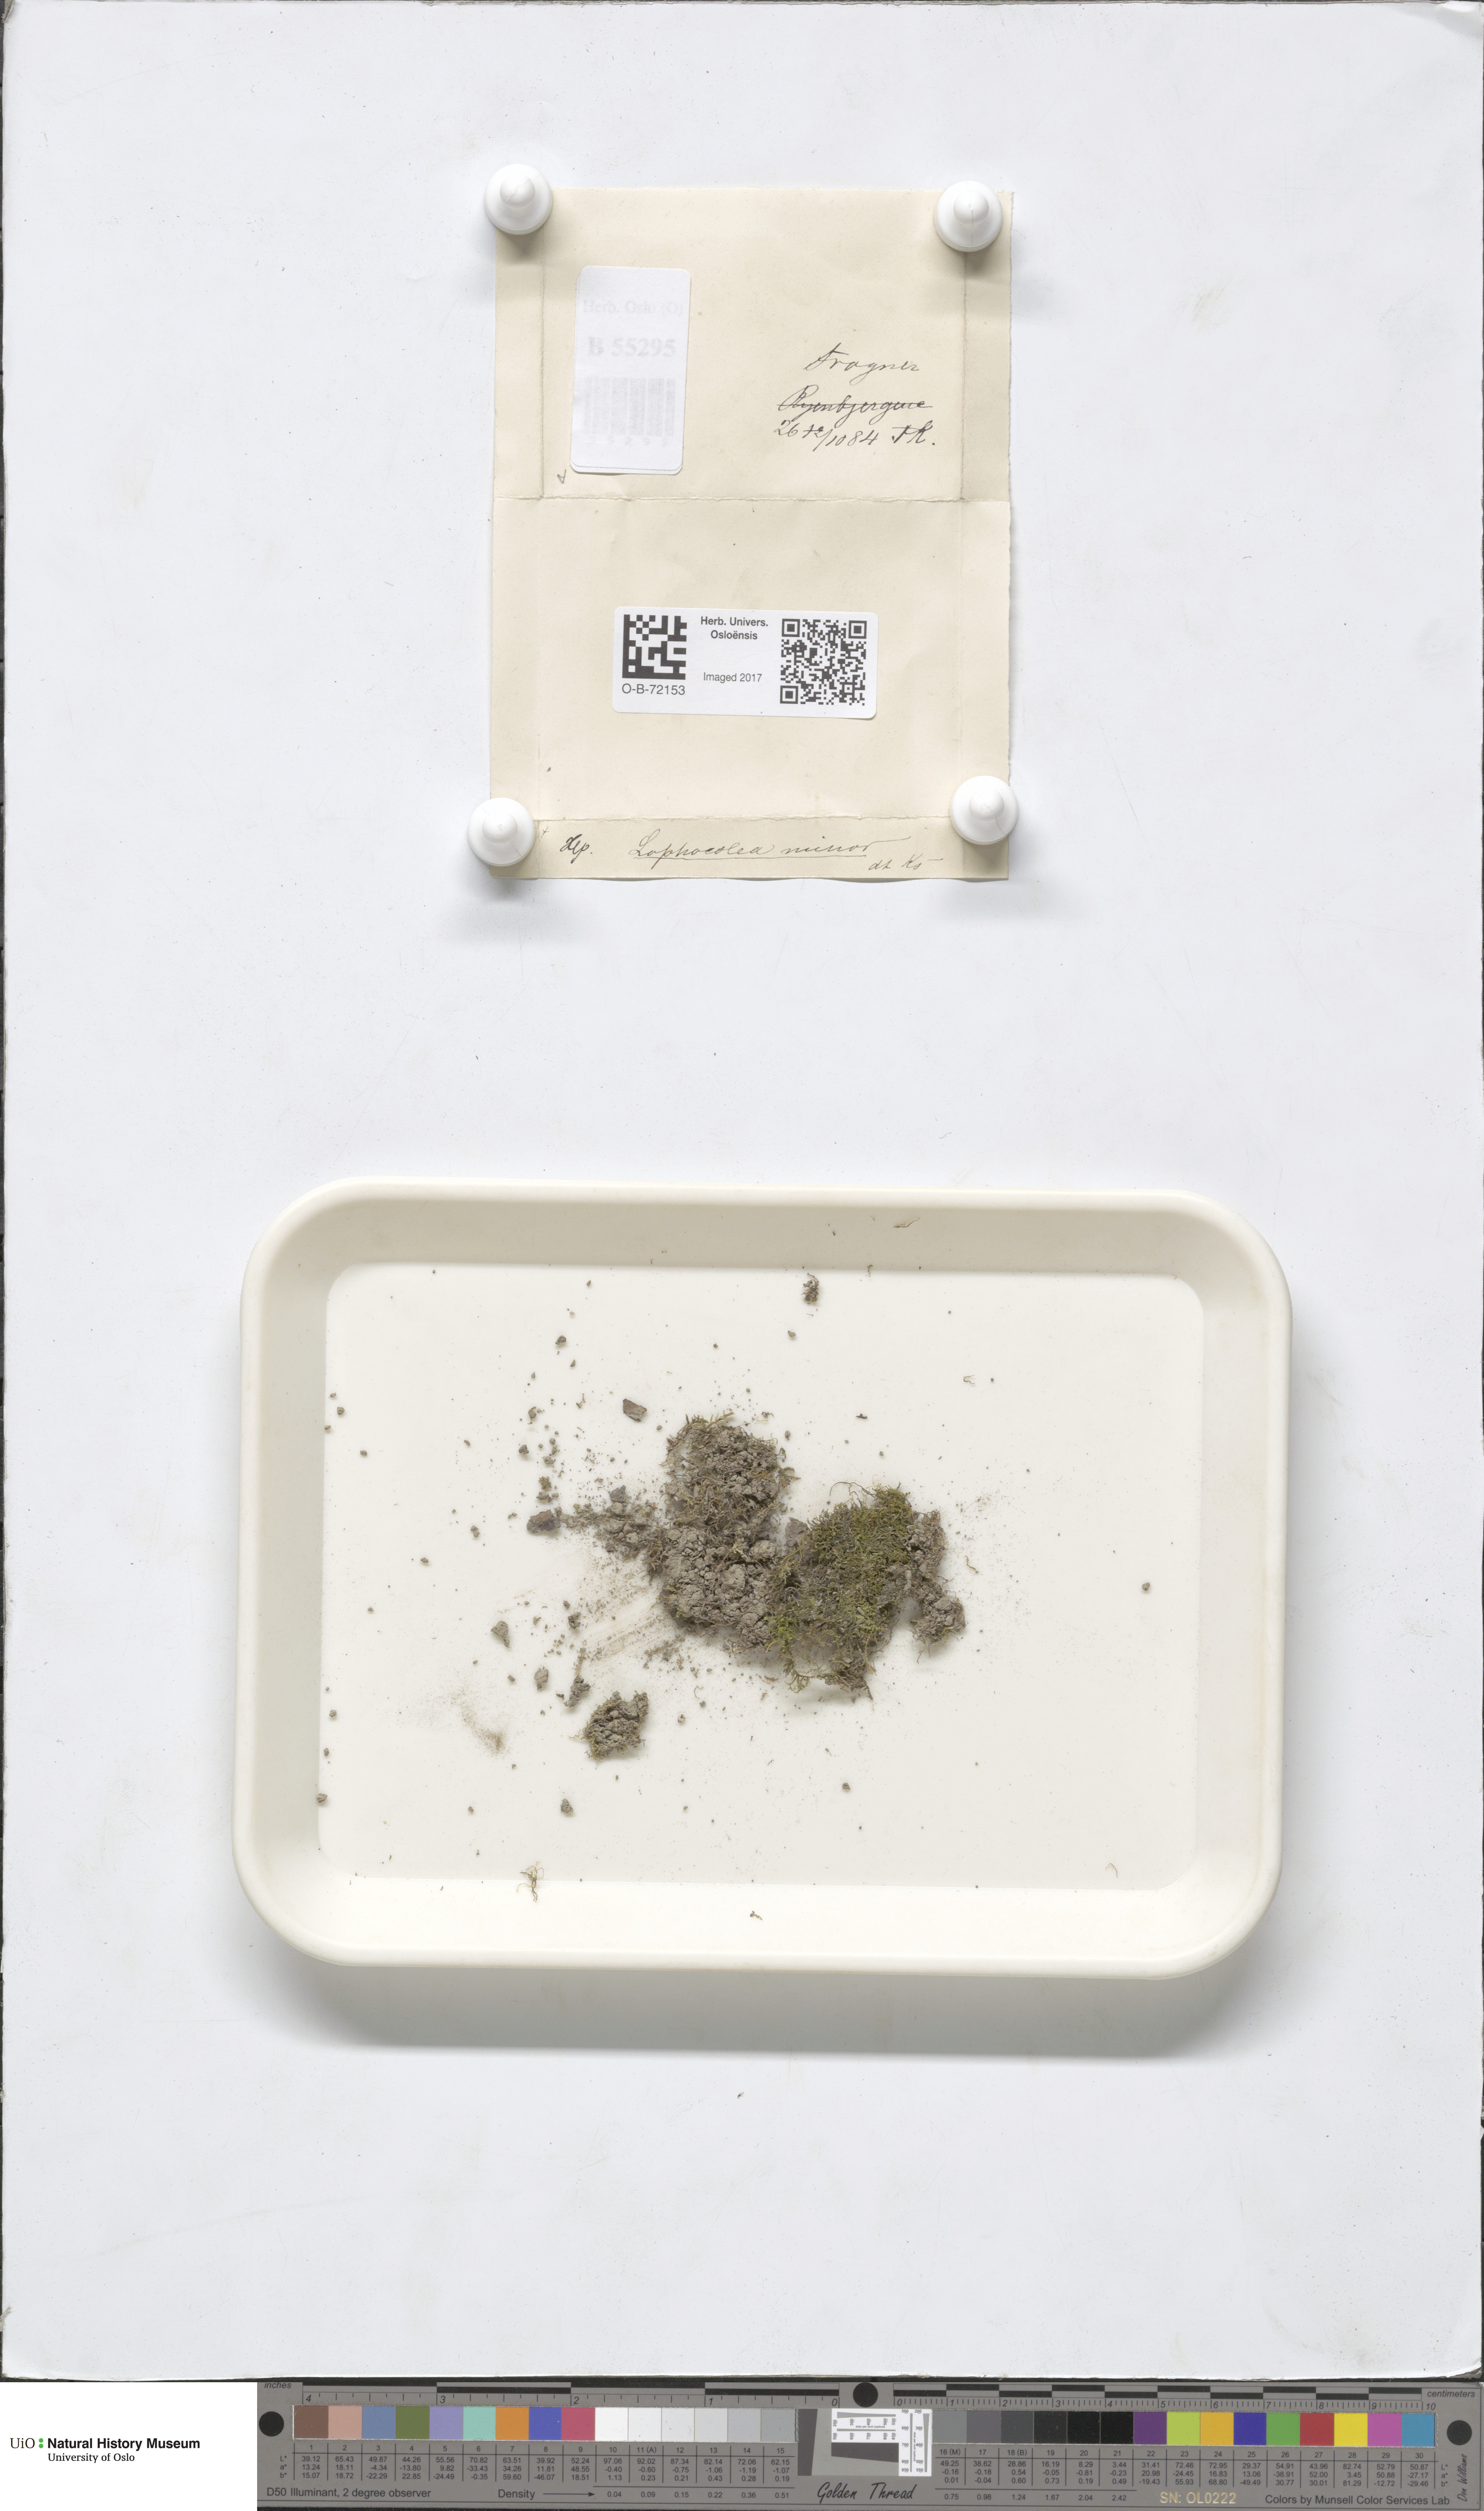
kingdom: Plantae
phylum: Marchantiophyta
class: Jungermanniopsida
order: Jungermanniales
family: Lophocoleaceae
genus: Lophocolea
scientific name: Lophocolea minor
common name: Lesser crestwort
